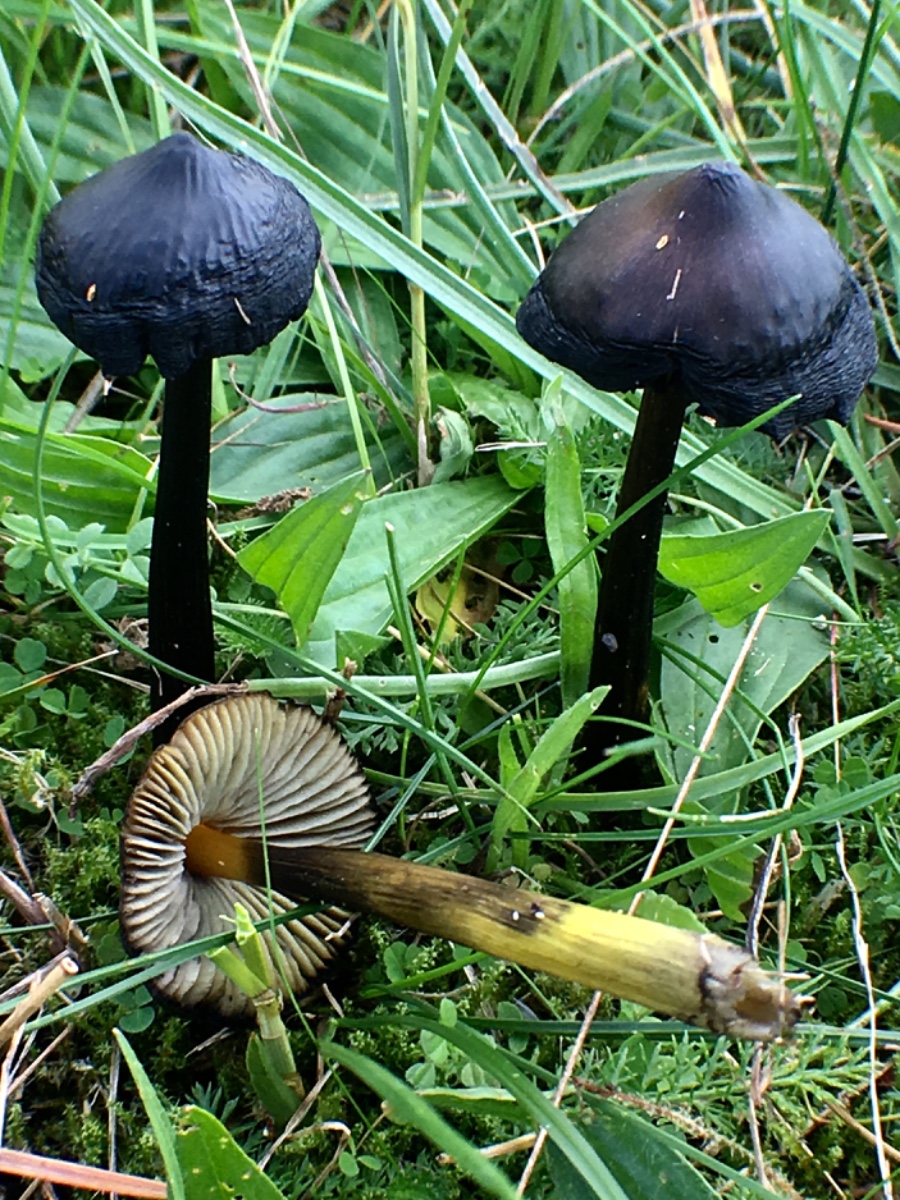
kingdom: Fungi
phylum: Basidiomycota
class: Agaricomycetes
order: Agaricales
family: Hygrophoraceae
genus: Hygrocybe
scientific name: Hygrocybe conica
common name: kegle-vokshat
